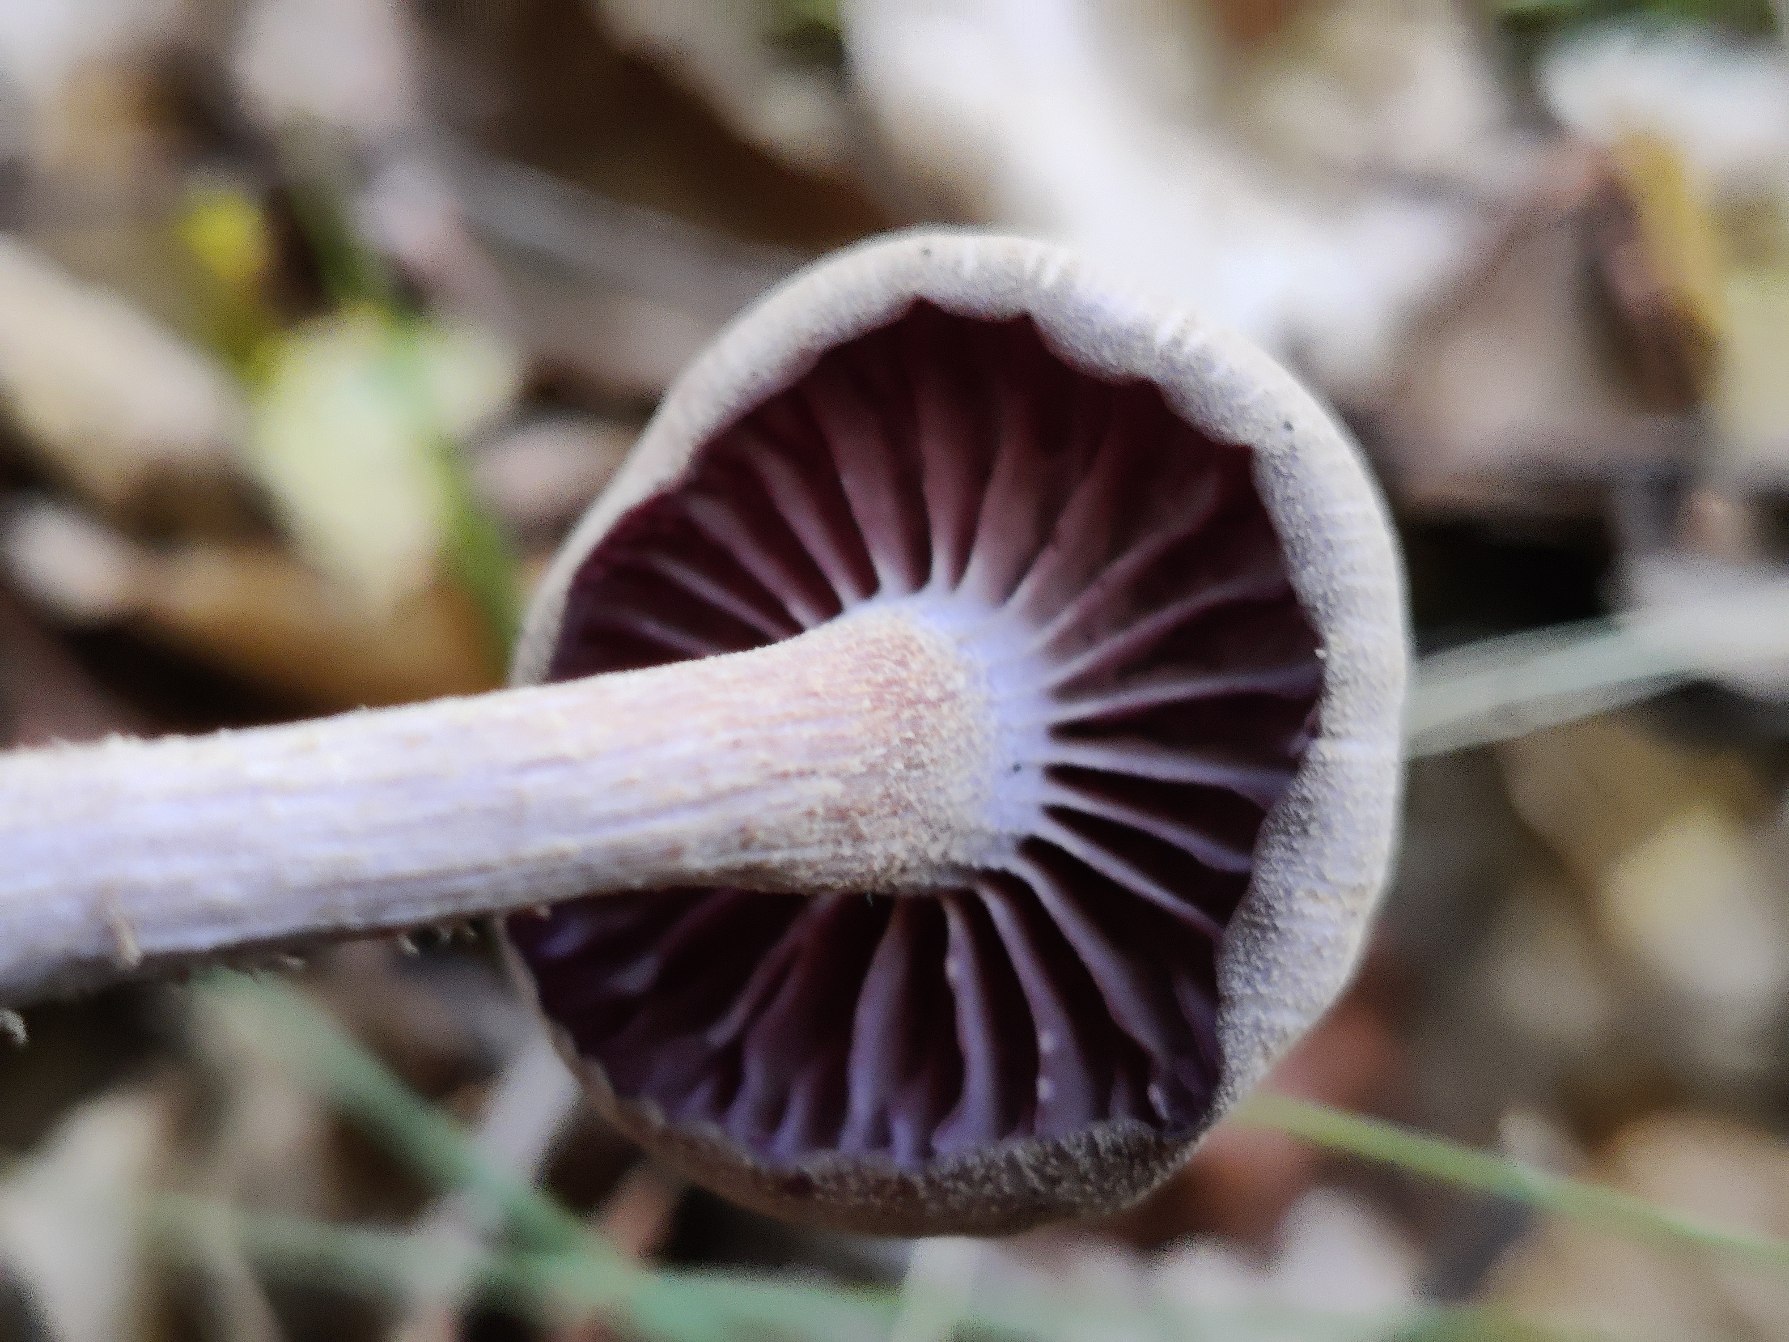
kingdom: Fungi
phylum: Basidiomycota
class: Agaricomycetes
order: Agaricales
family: Hydnangiaceae
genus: Laccaria
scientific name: Laccaria amethystina
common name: Violet ametysthat
